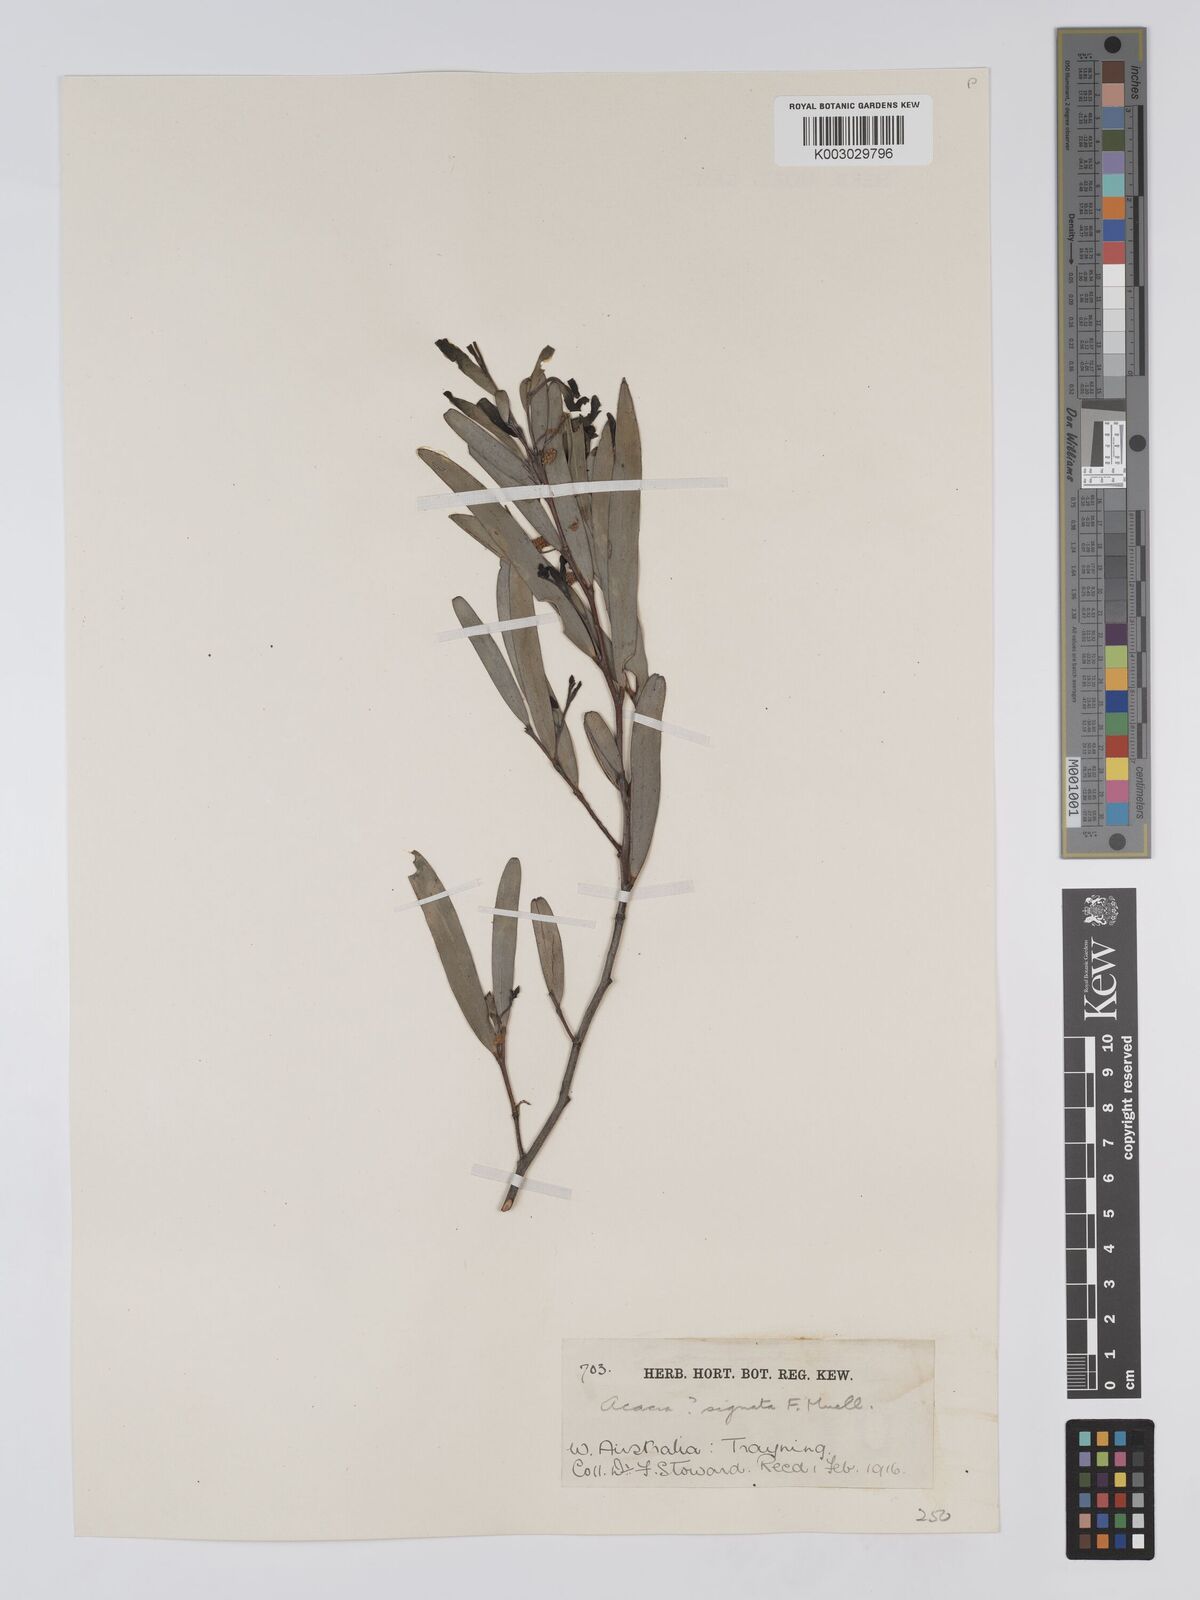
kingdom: Plantae
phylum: Tracheophyta
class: Magnoliopsida
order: Fabales
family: Fabaceae
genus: Acacia
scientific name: Acacia signata
